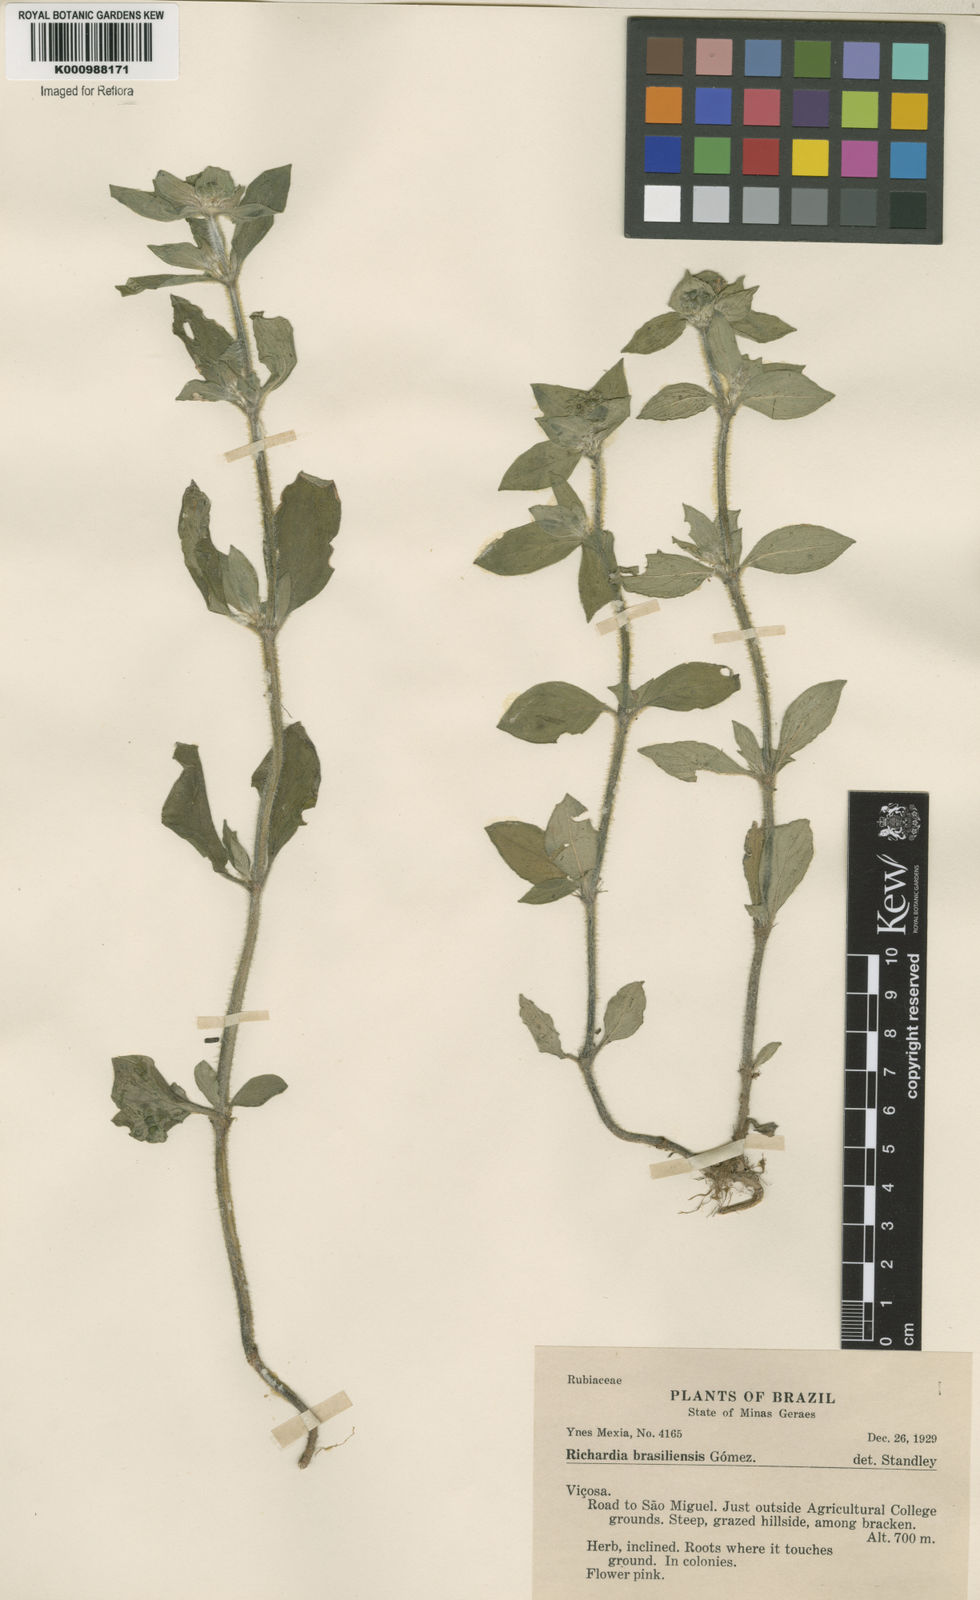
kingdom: Plantae
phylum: Tracheophyta
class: Magnoliopsida
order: Gentianales
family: Rubiaceae
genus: Richardia
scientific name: Richardia brasiliensis
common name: Tropical mexican clover
